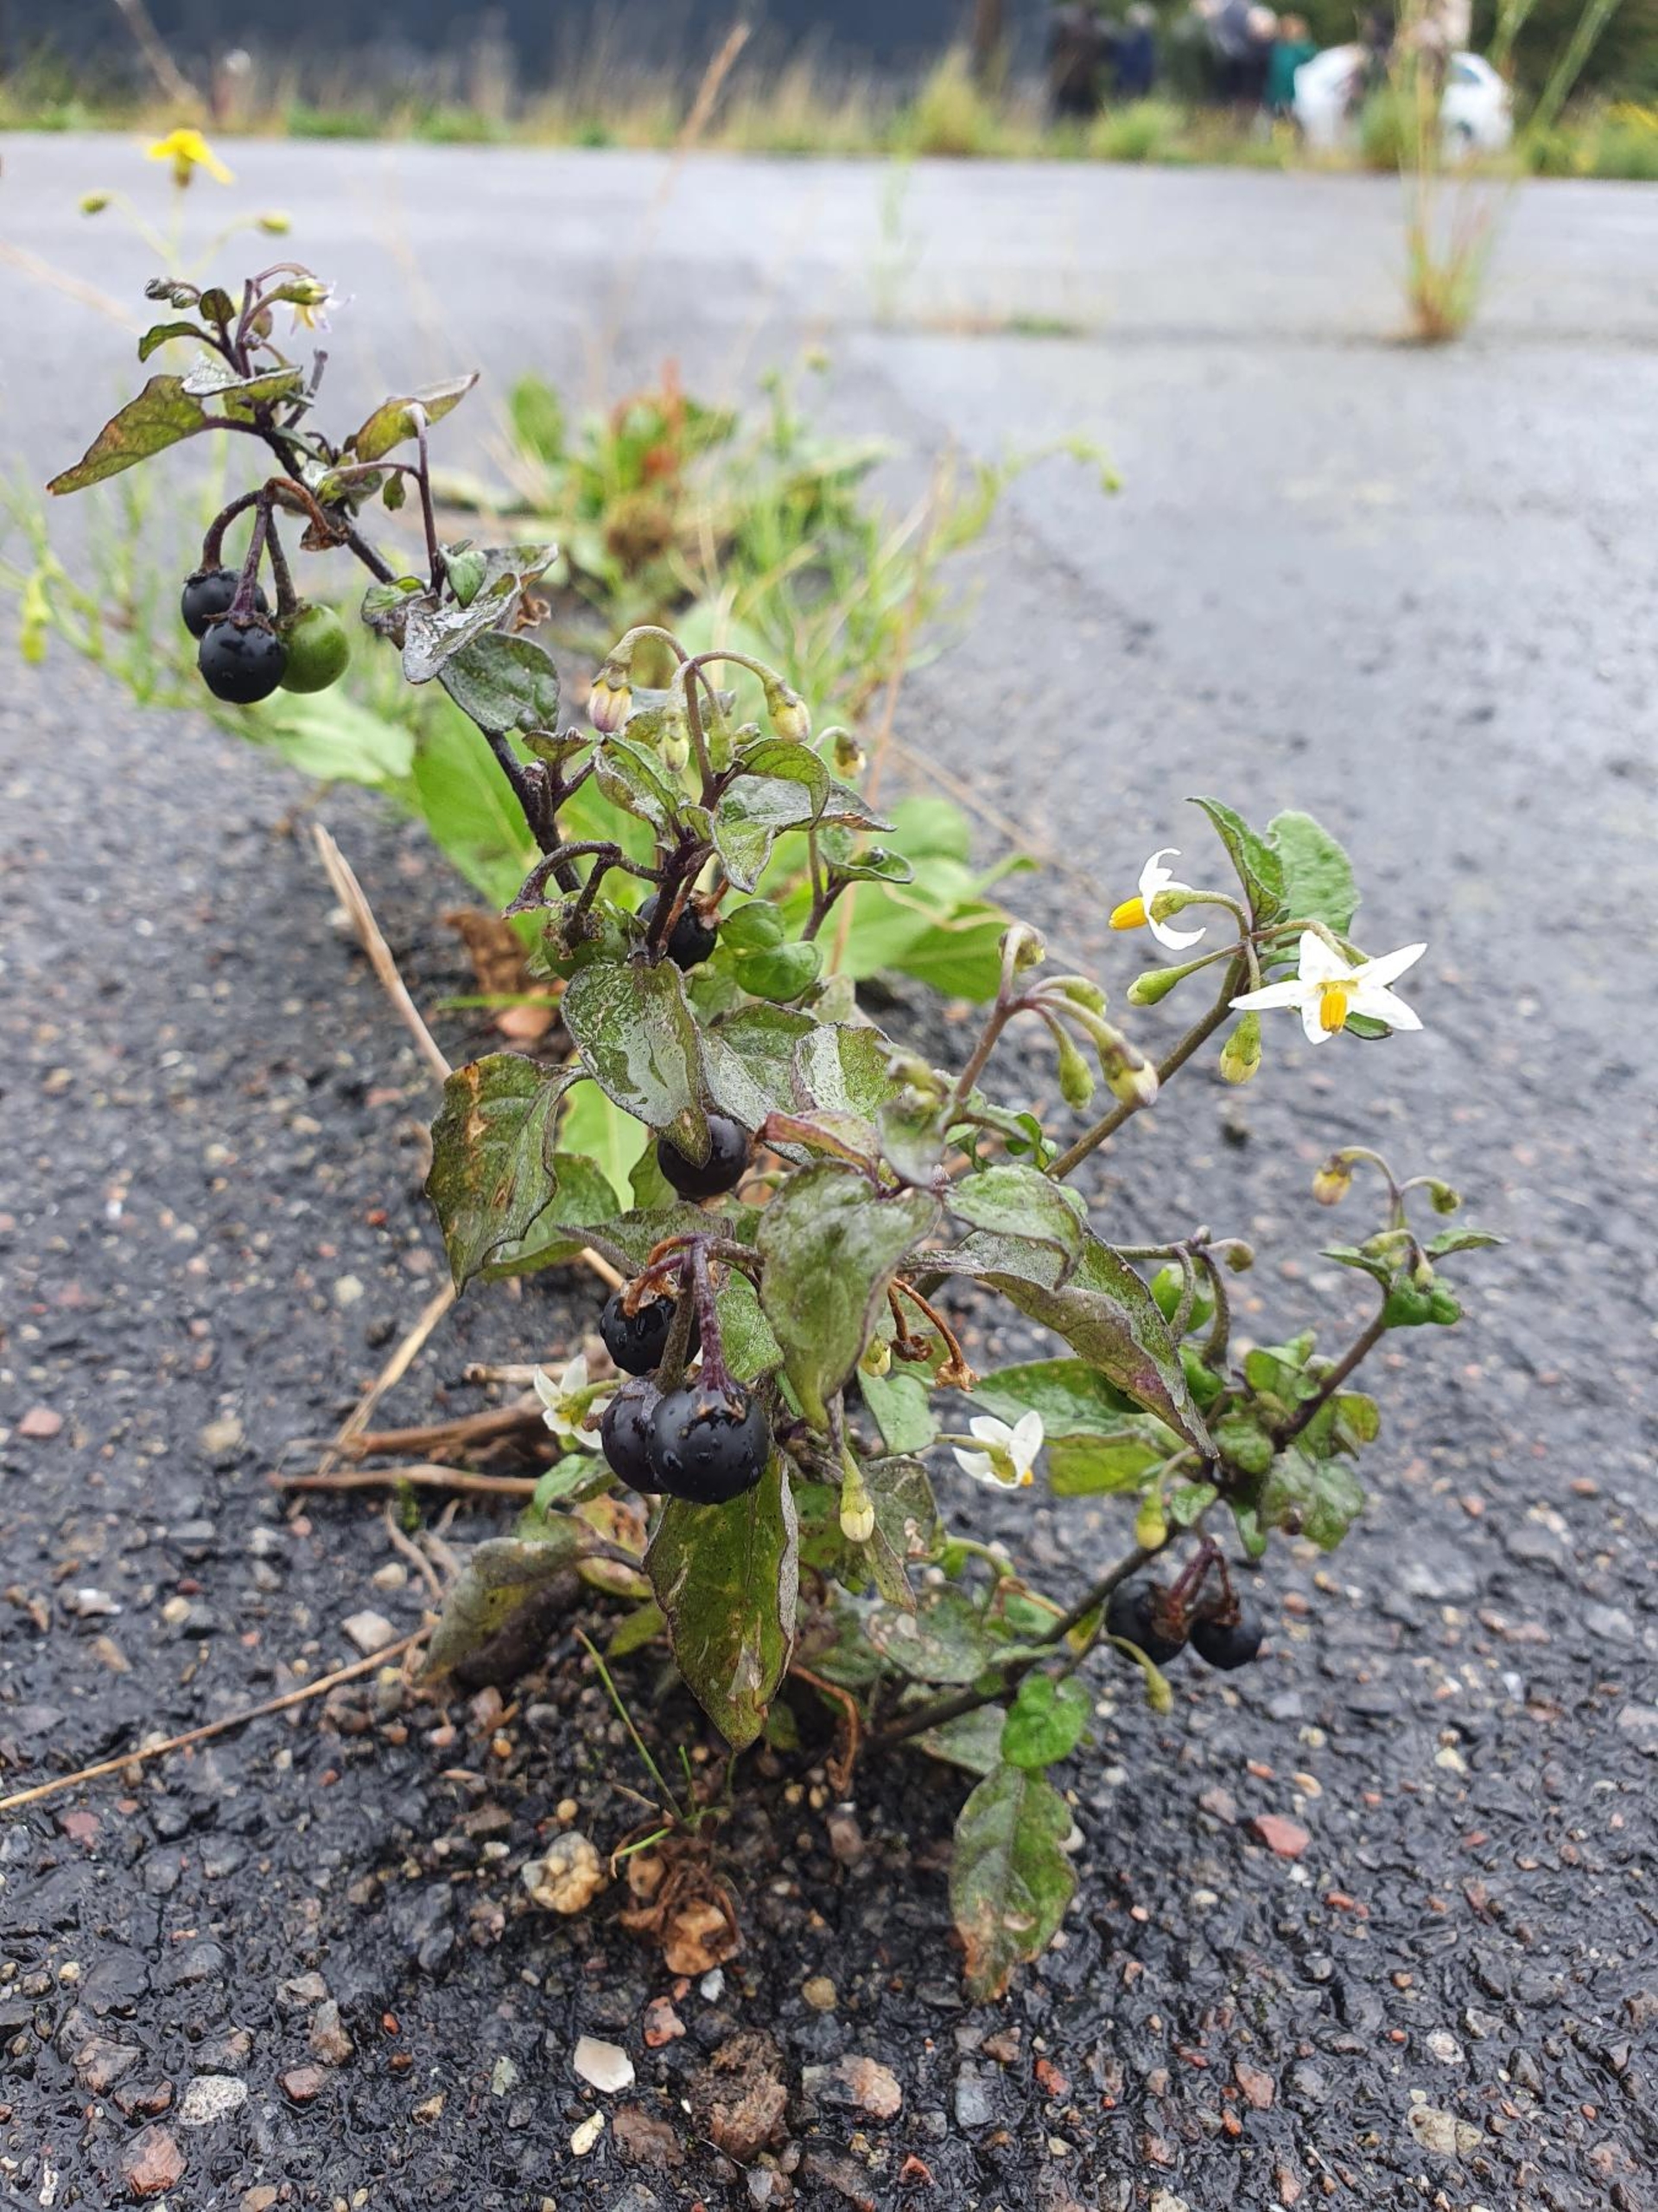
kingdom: Plantae
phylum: Tracheophyta
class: Magnoliopsida
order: Solanales
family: Solanaceae
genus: Solanum
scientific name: Solanum nigrum
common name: Sort natskygge (underart)
